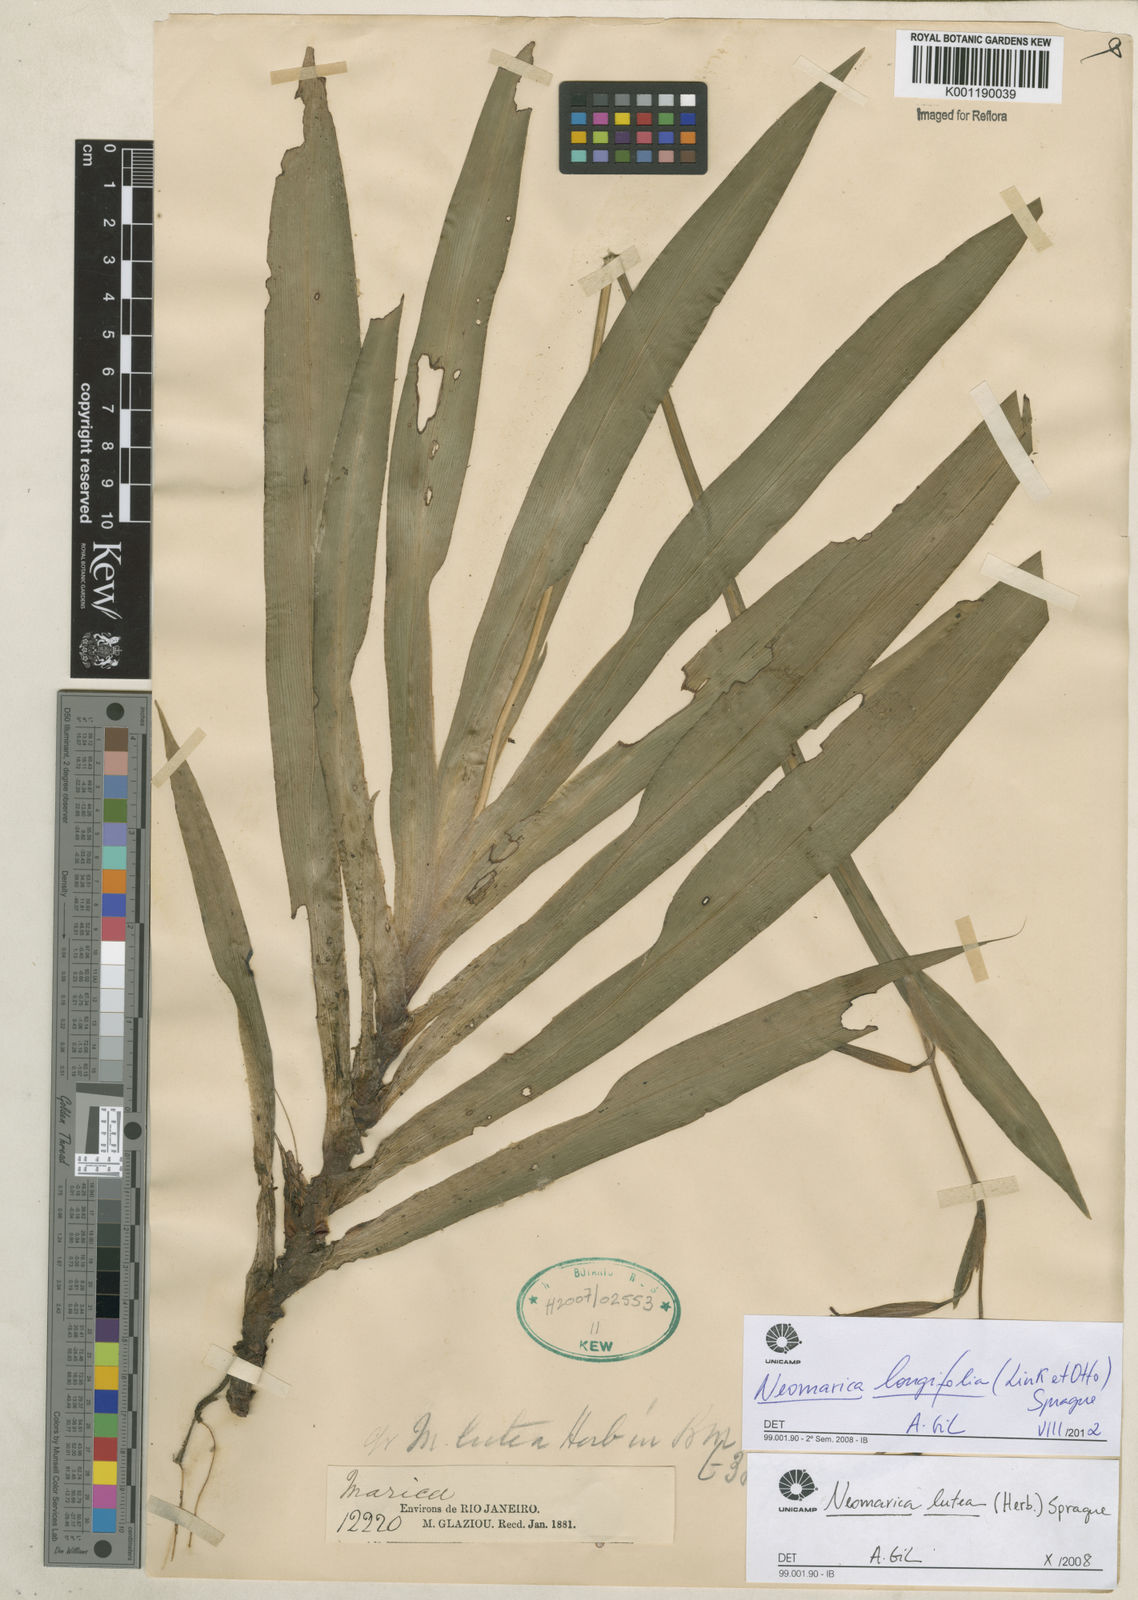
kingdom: Plantae
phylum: Tracheophyta
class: Liliopsida
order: Asparagales
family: Iridaceae
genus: Trimezia
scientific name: Trimezia longifolia
